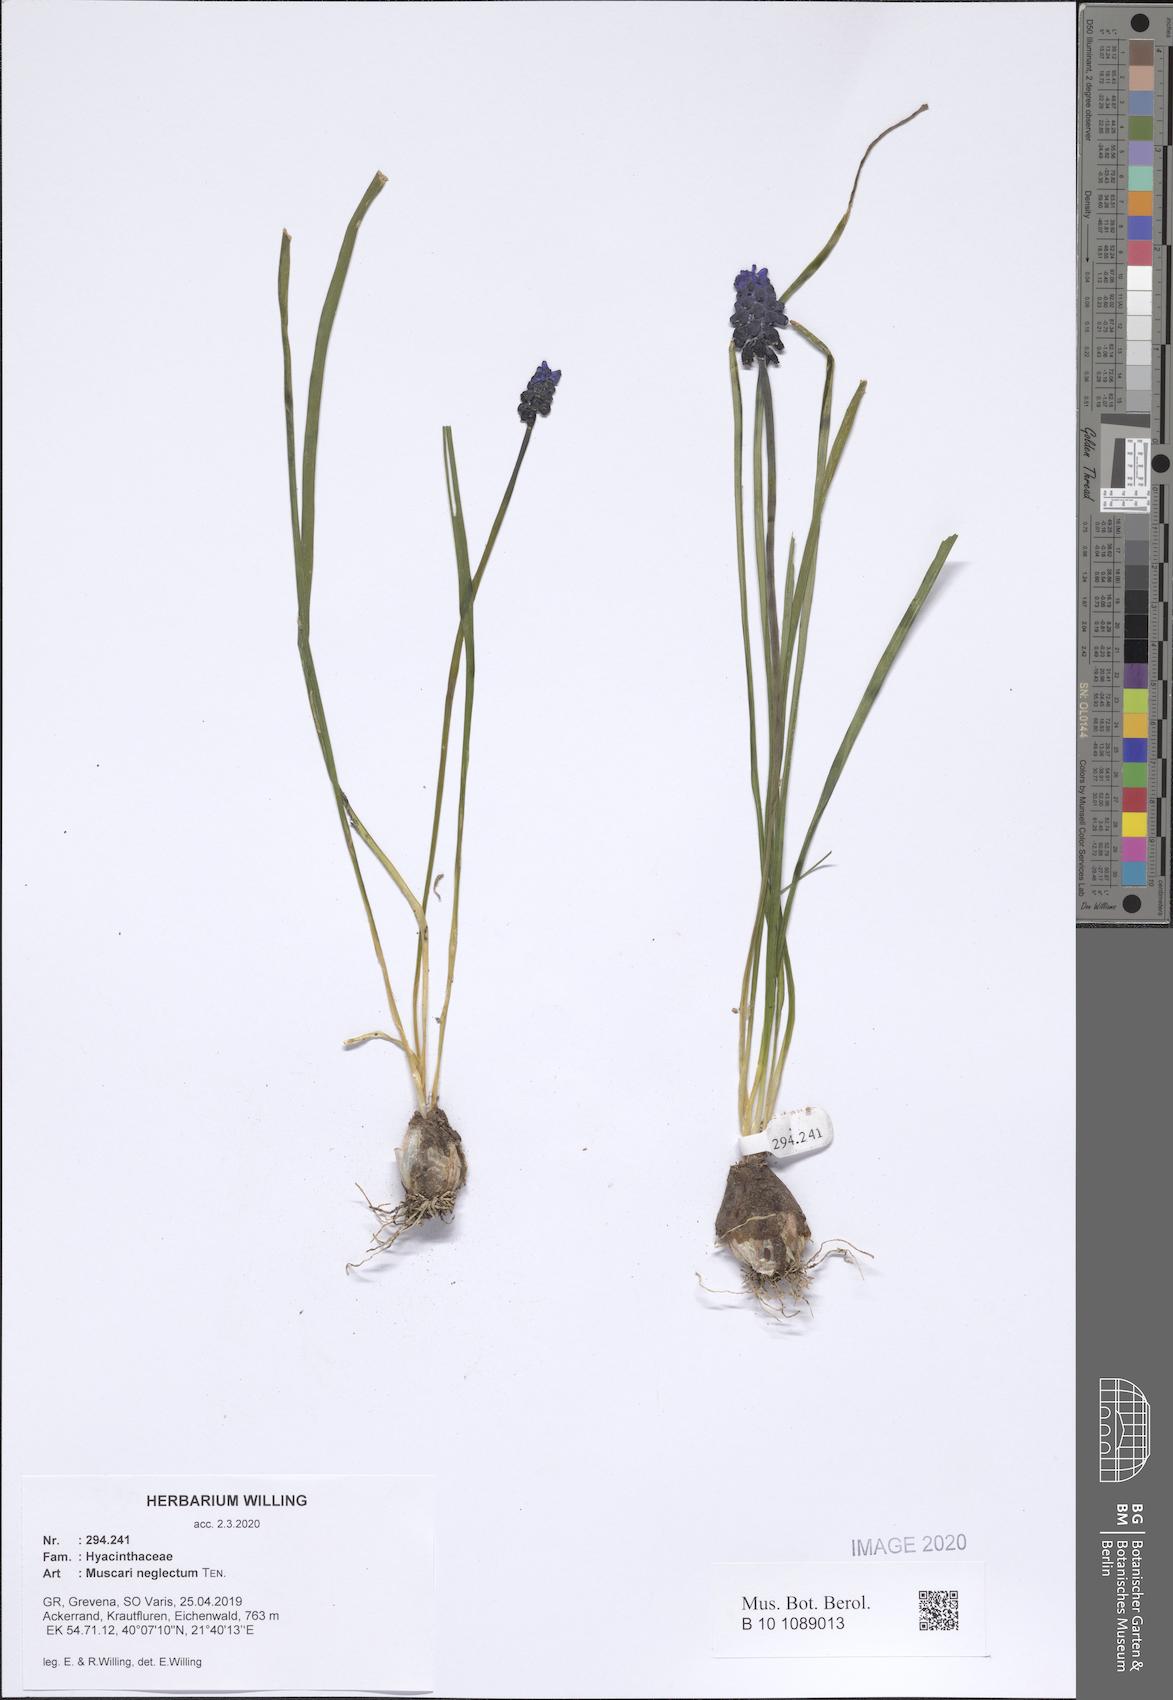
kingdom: Plantae
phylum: Tracheophyta
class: Liliopsida
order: Asparagales
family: Asparagaceae
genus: Muscari
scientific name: Muscari neglectum
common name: Grape-hyacinth
